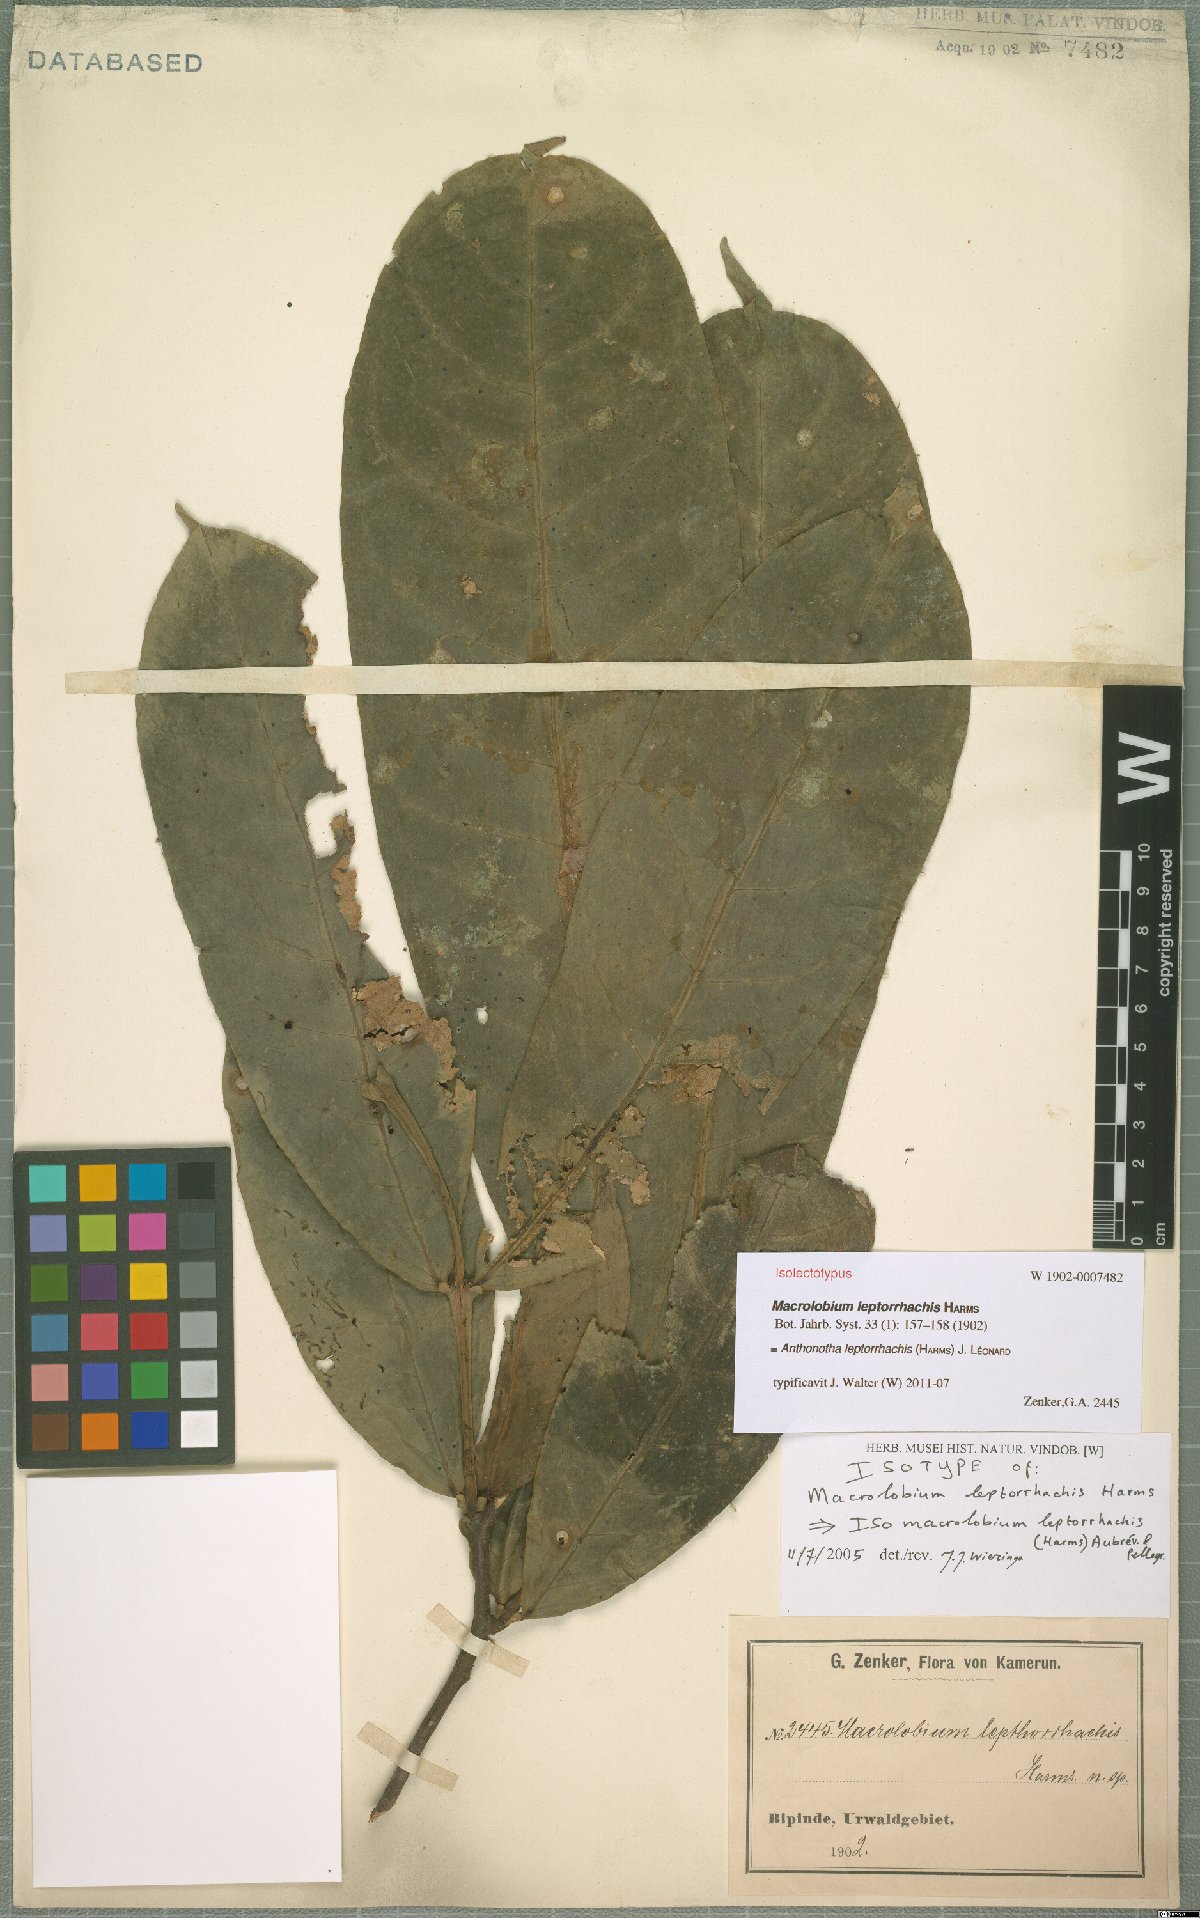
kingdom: Plantae
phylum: Tracheophyta
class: Magnoliopsida
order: Fabales
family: Fabaceae
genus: Englerodendron
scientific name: Englerodendron leptorrhachis
